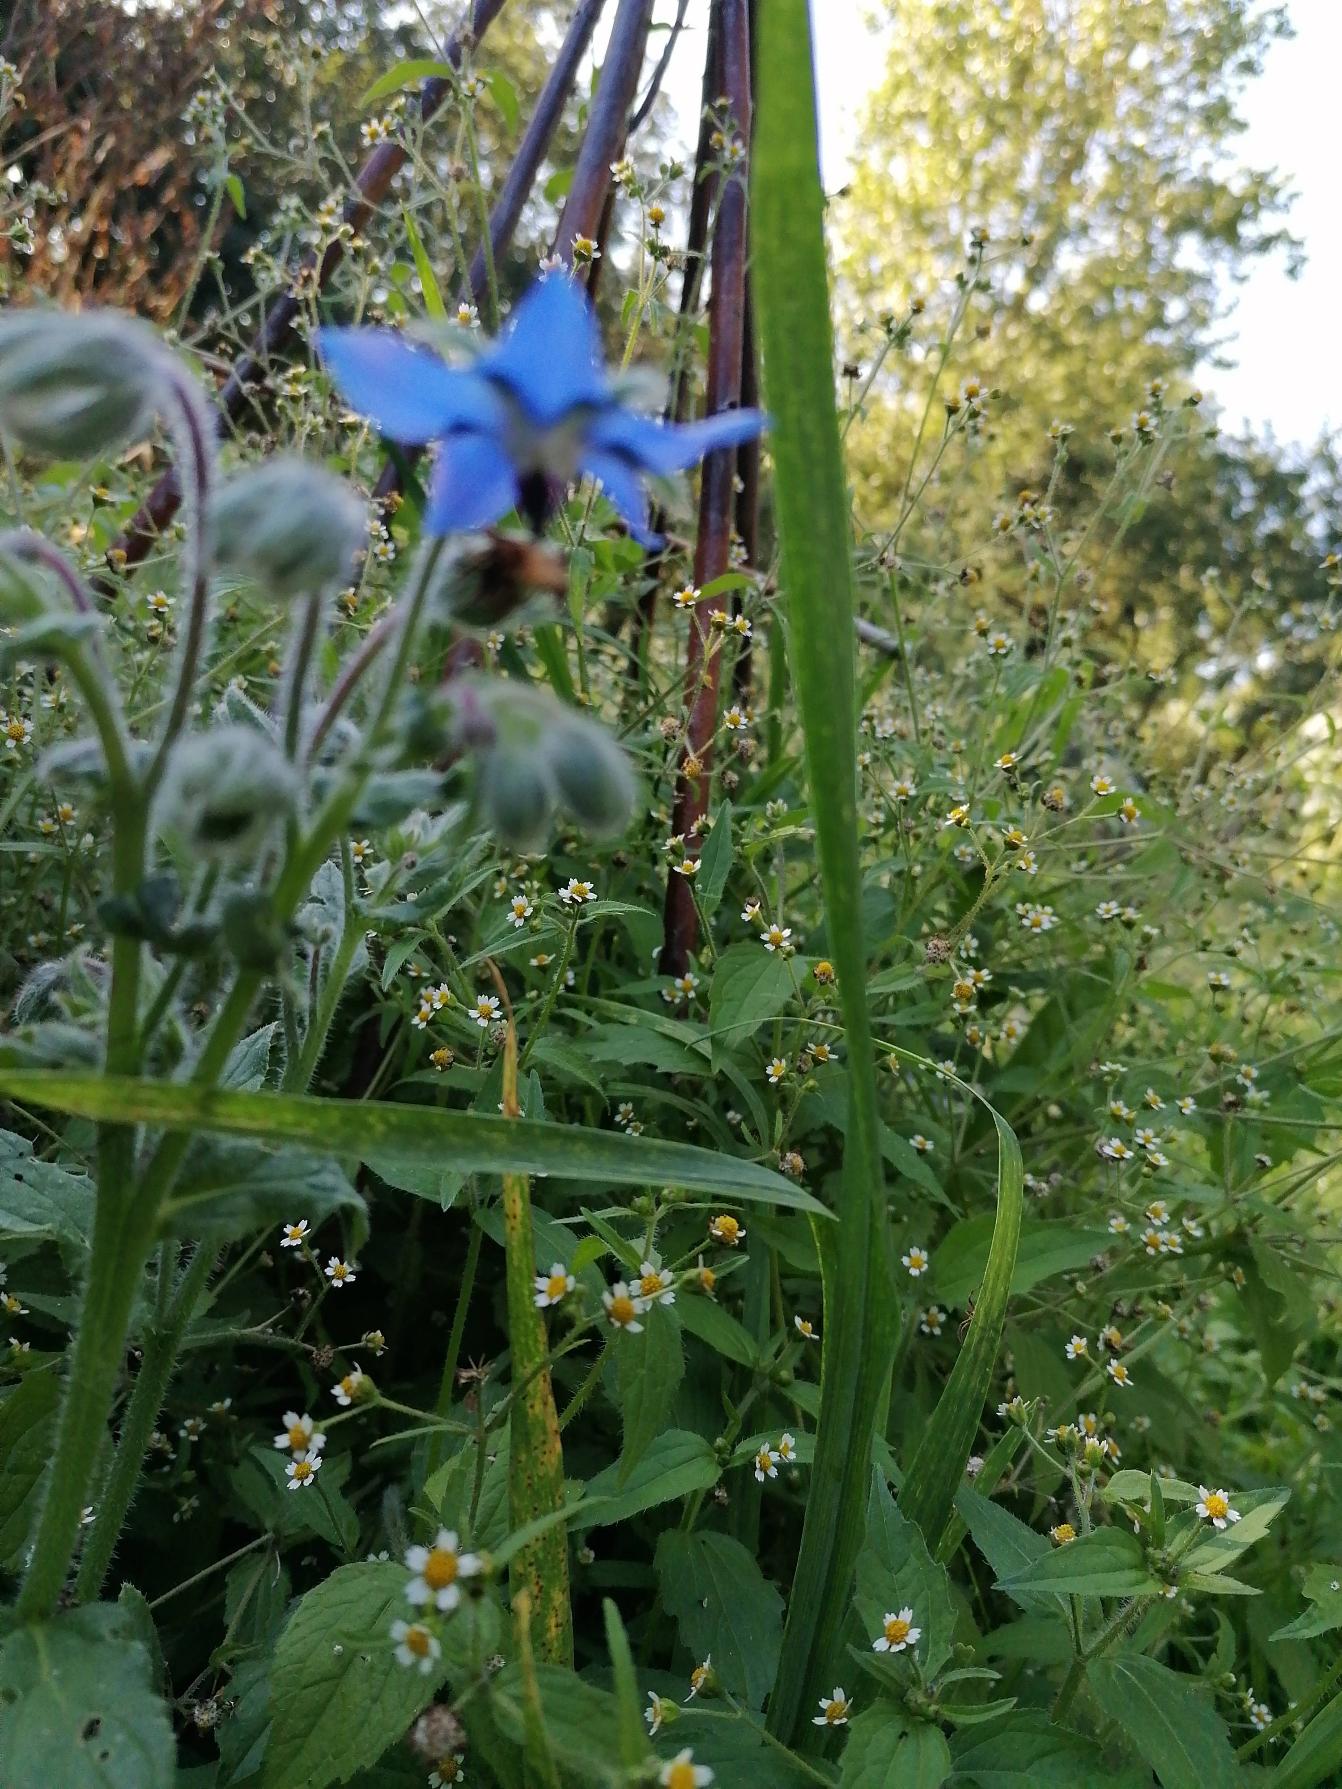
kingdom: Plantae
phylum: Tracheophyta
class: Magnoliopsida
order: Boraginales
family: Boraginaceae
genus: Borago
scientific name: Borago officinalis
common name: Hjulkrone
